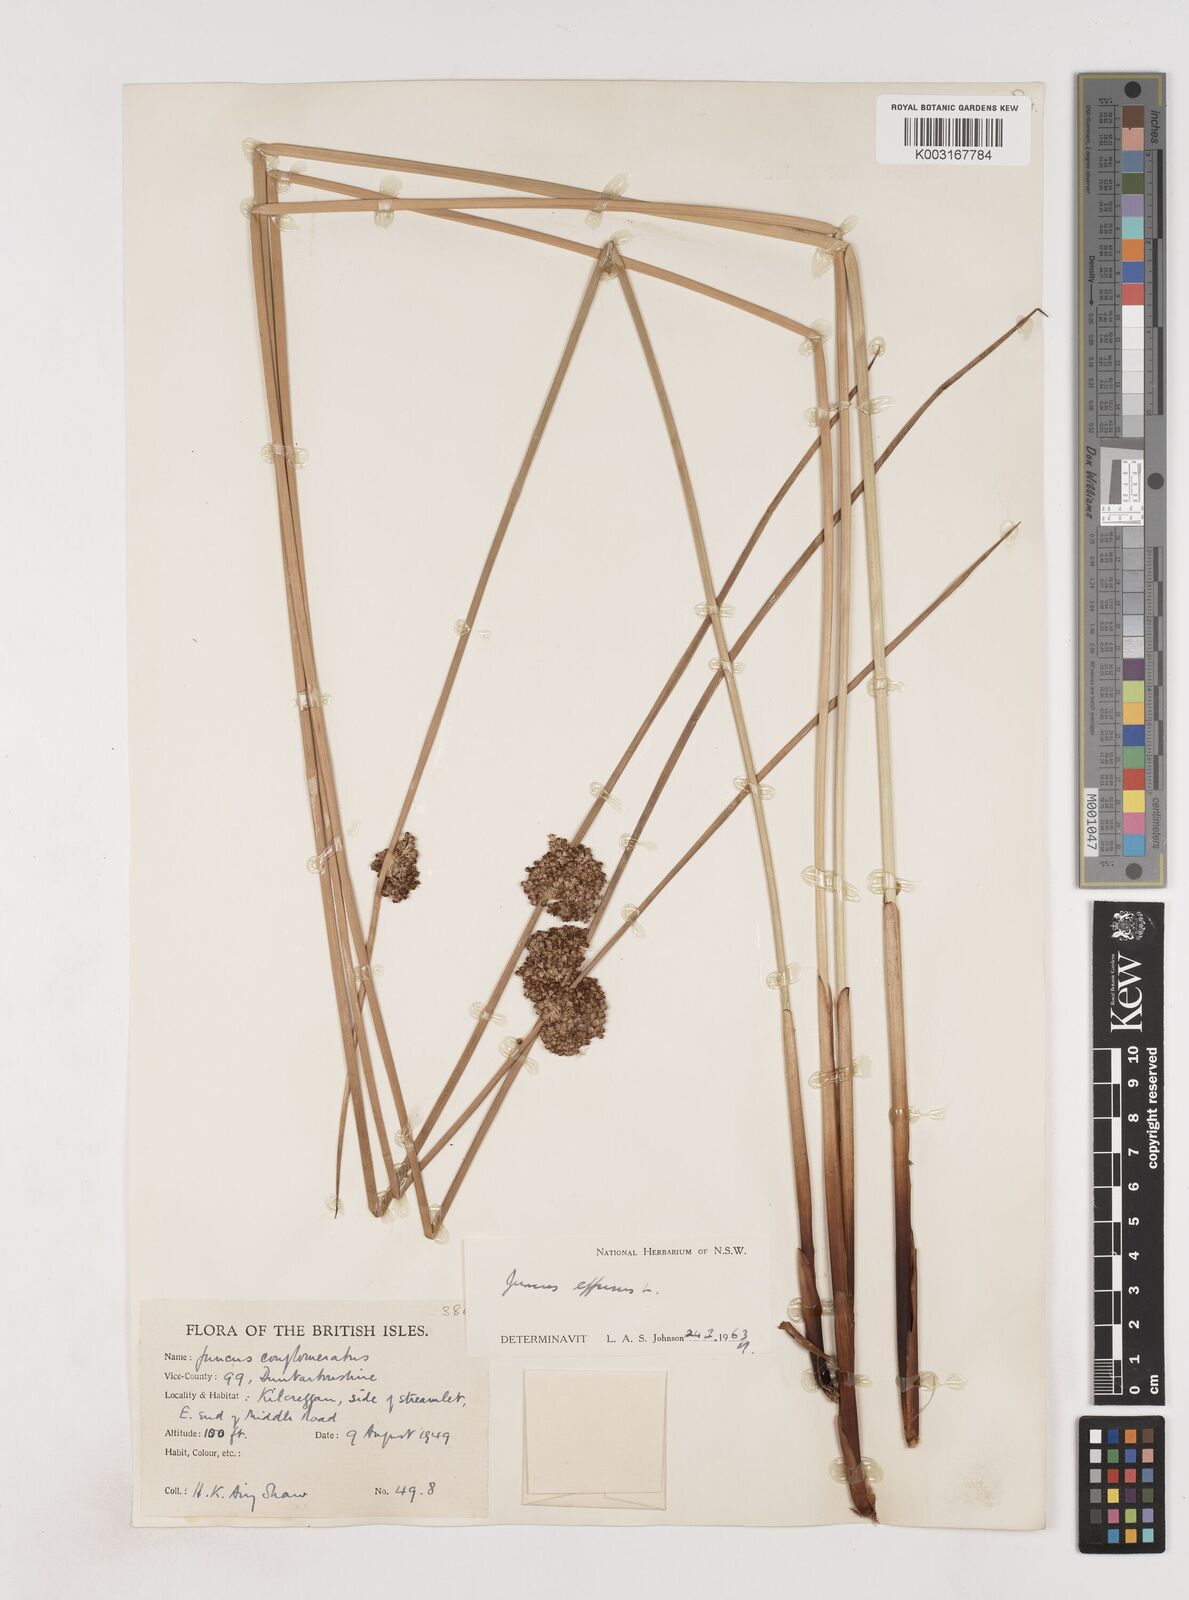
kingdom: Plantae
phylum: Tracheophyta
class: Liliopsida
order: Poales
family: Juncaceae
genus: Juncus
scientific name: Juncus effusus
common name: Soft rush
